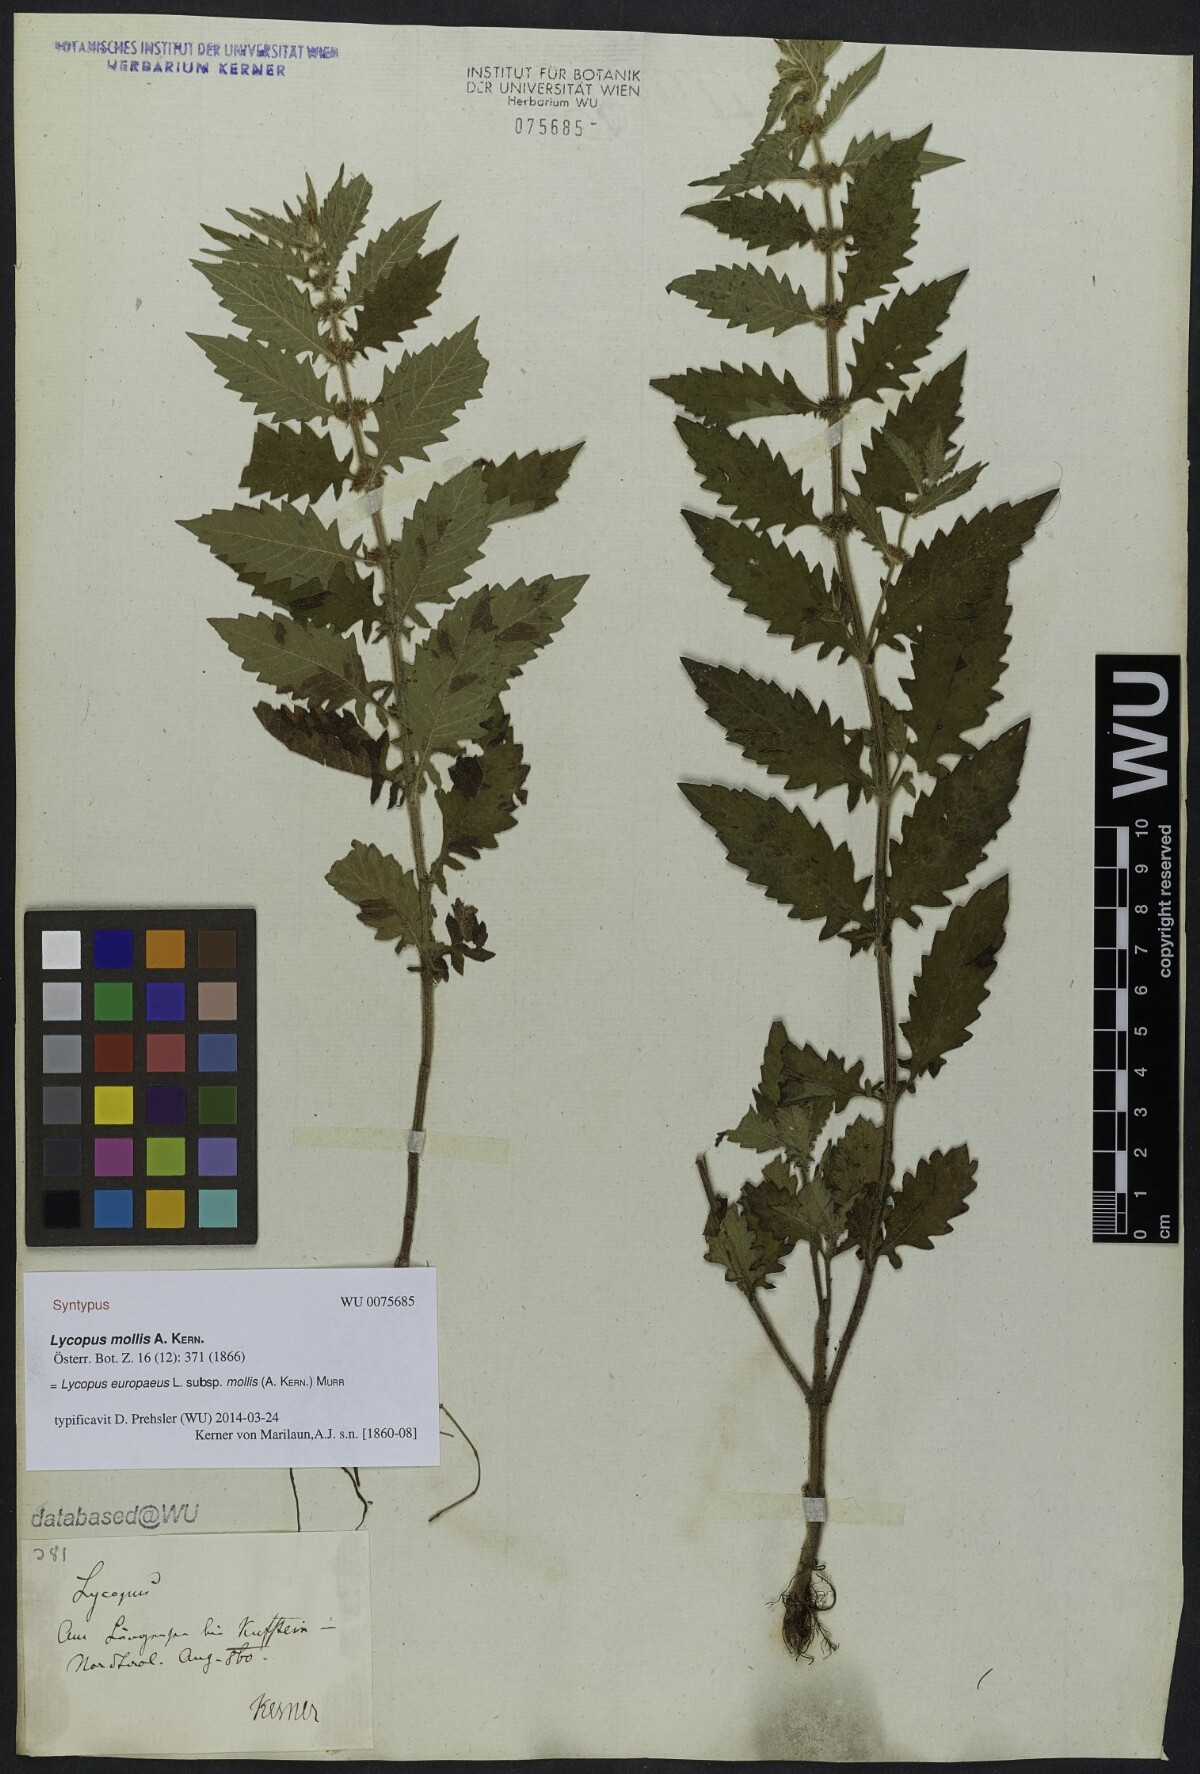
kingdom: Plantae
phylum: Tracheophyta
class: Magnoliopsida
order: Lamiales
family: Lamiaceae
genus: Lycopus
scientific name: Lycopus europaeus
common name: European bugleweed
